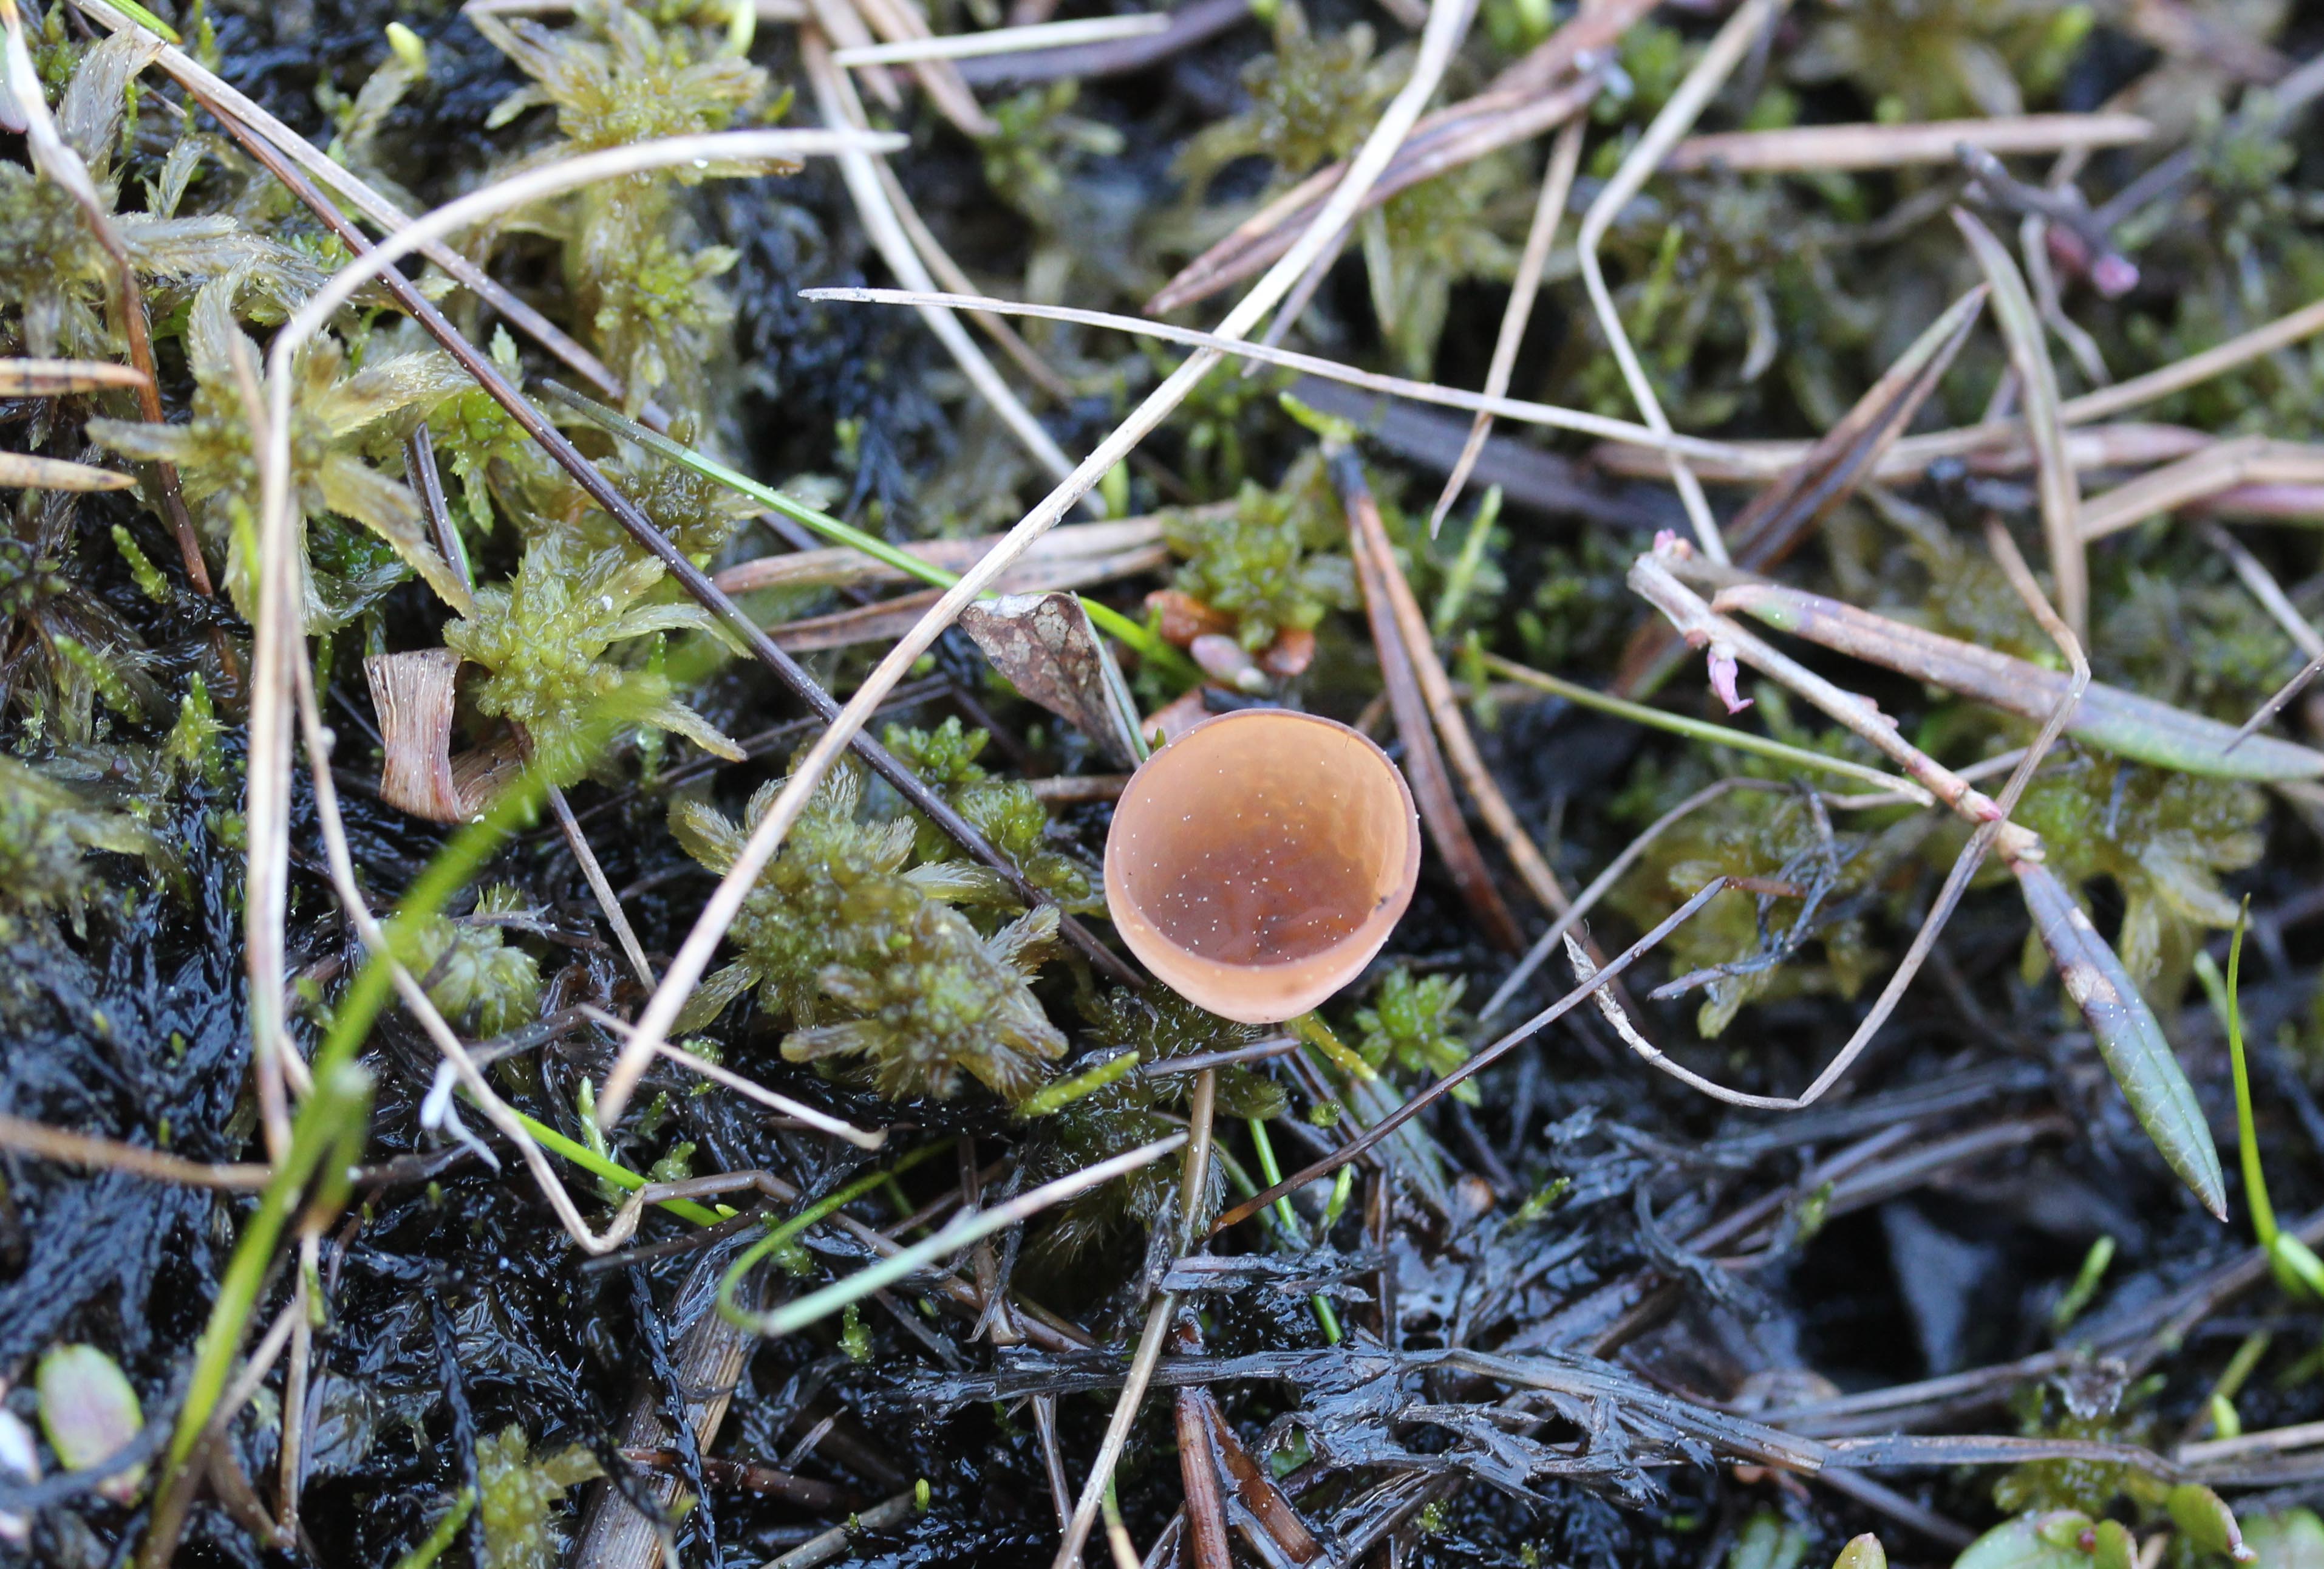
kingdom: Fungi
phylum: Ascomycota
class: Leotiomycetes
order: Helotiales
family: Sclerotiniaceae
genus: Myriosclerotinia
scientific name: Myriosclerotinia dennisii
